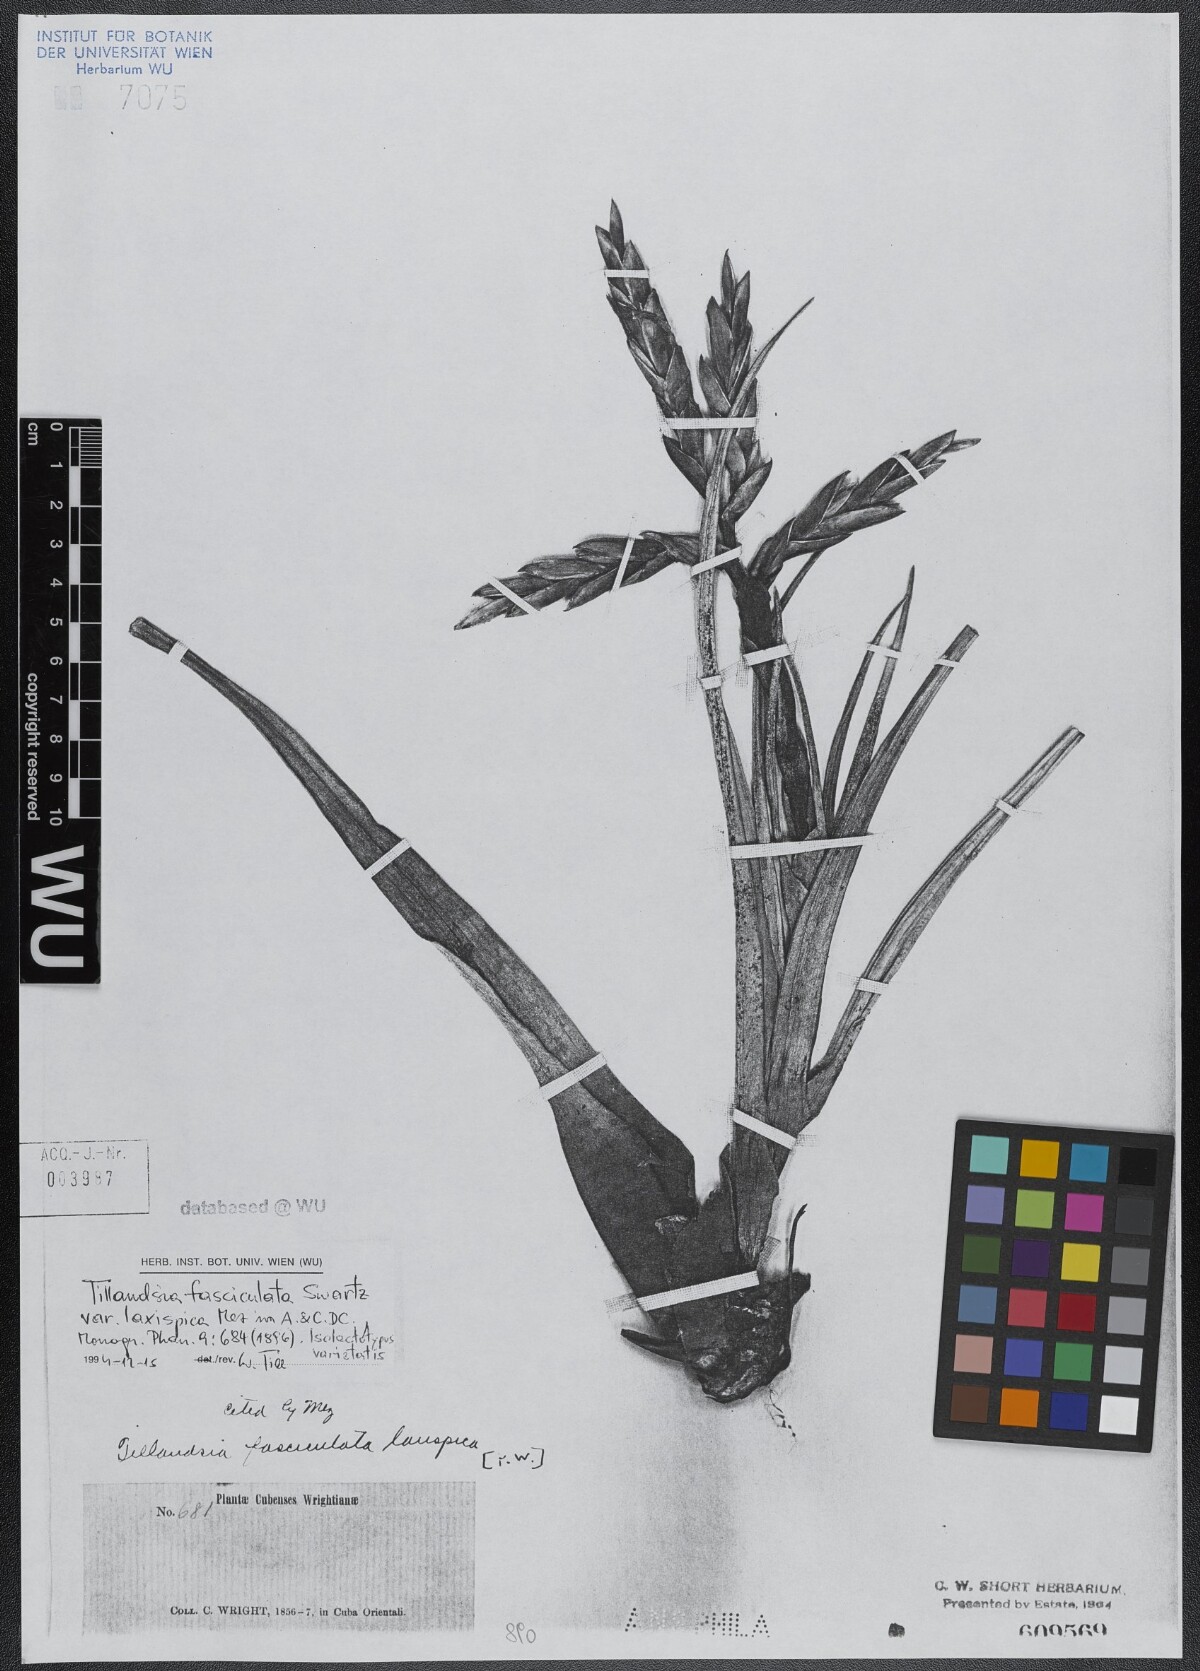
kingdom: Plantae
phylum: Tracheophyta
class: Liliopsida
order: Poales
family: Bromeliaceae
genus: Tillandsia
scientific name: Tillandsia fasciculata
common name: Giant airplant
